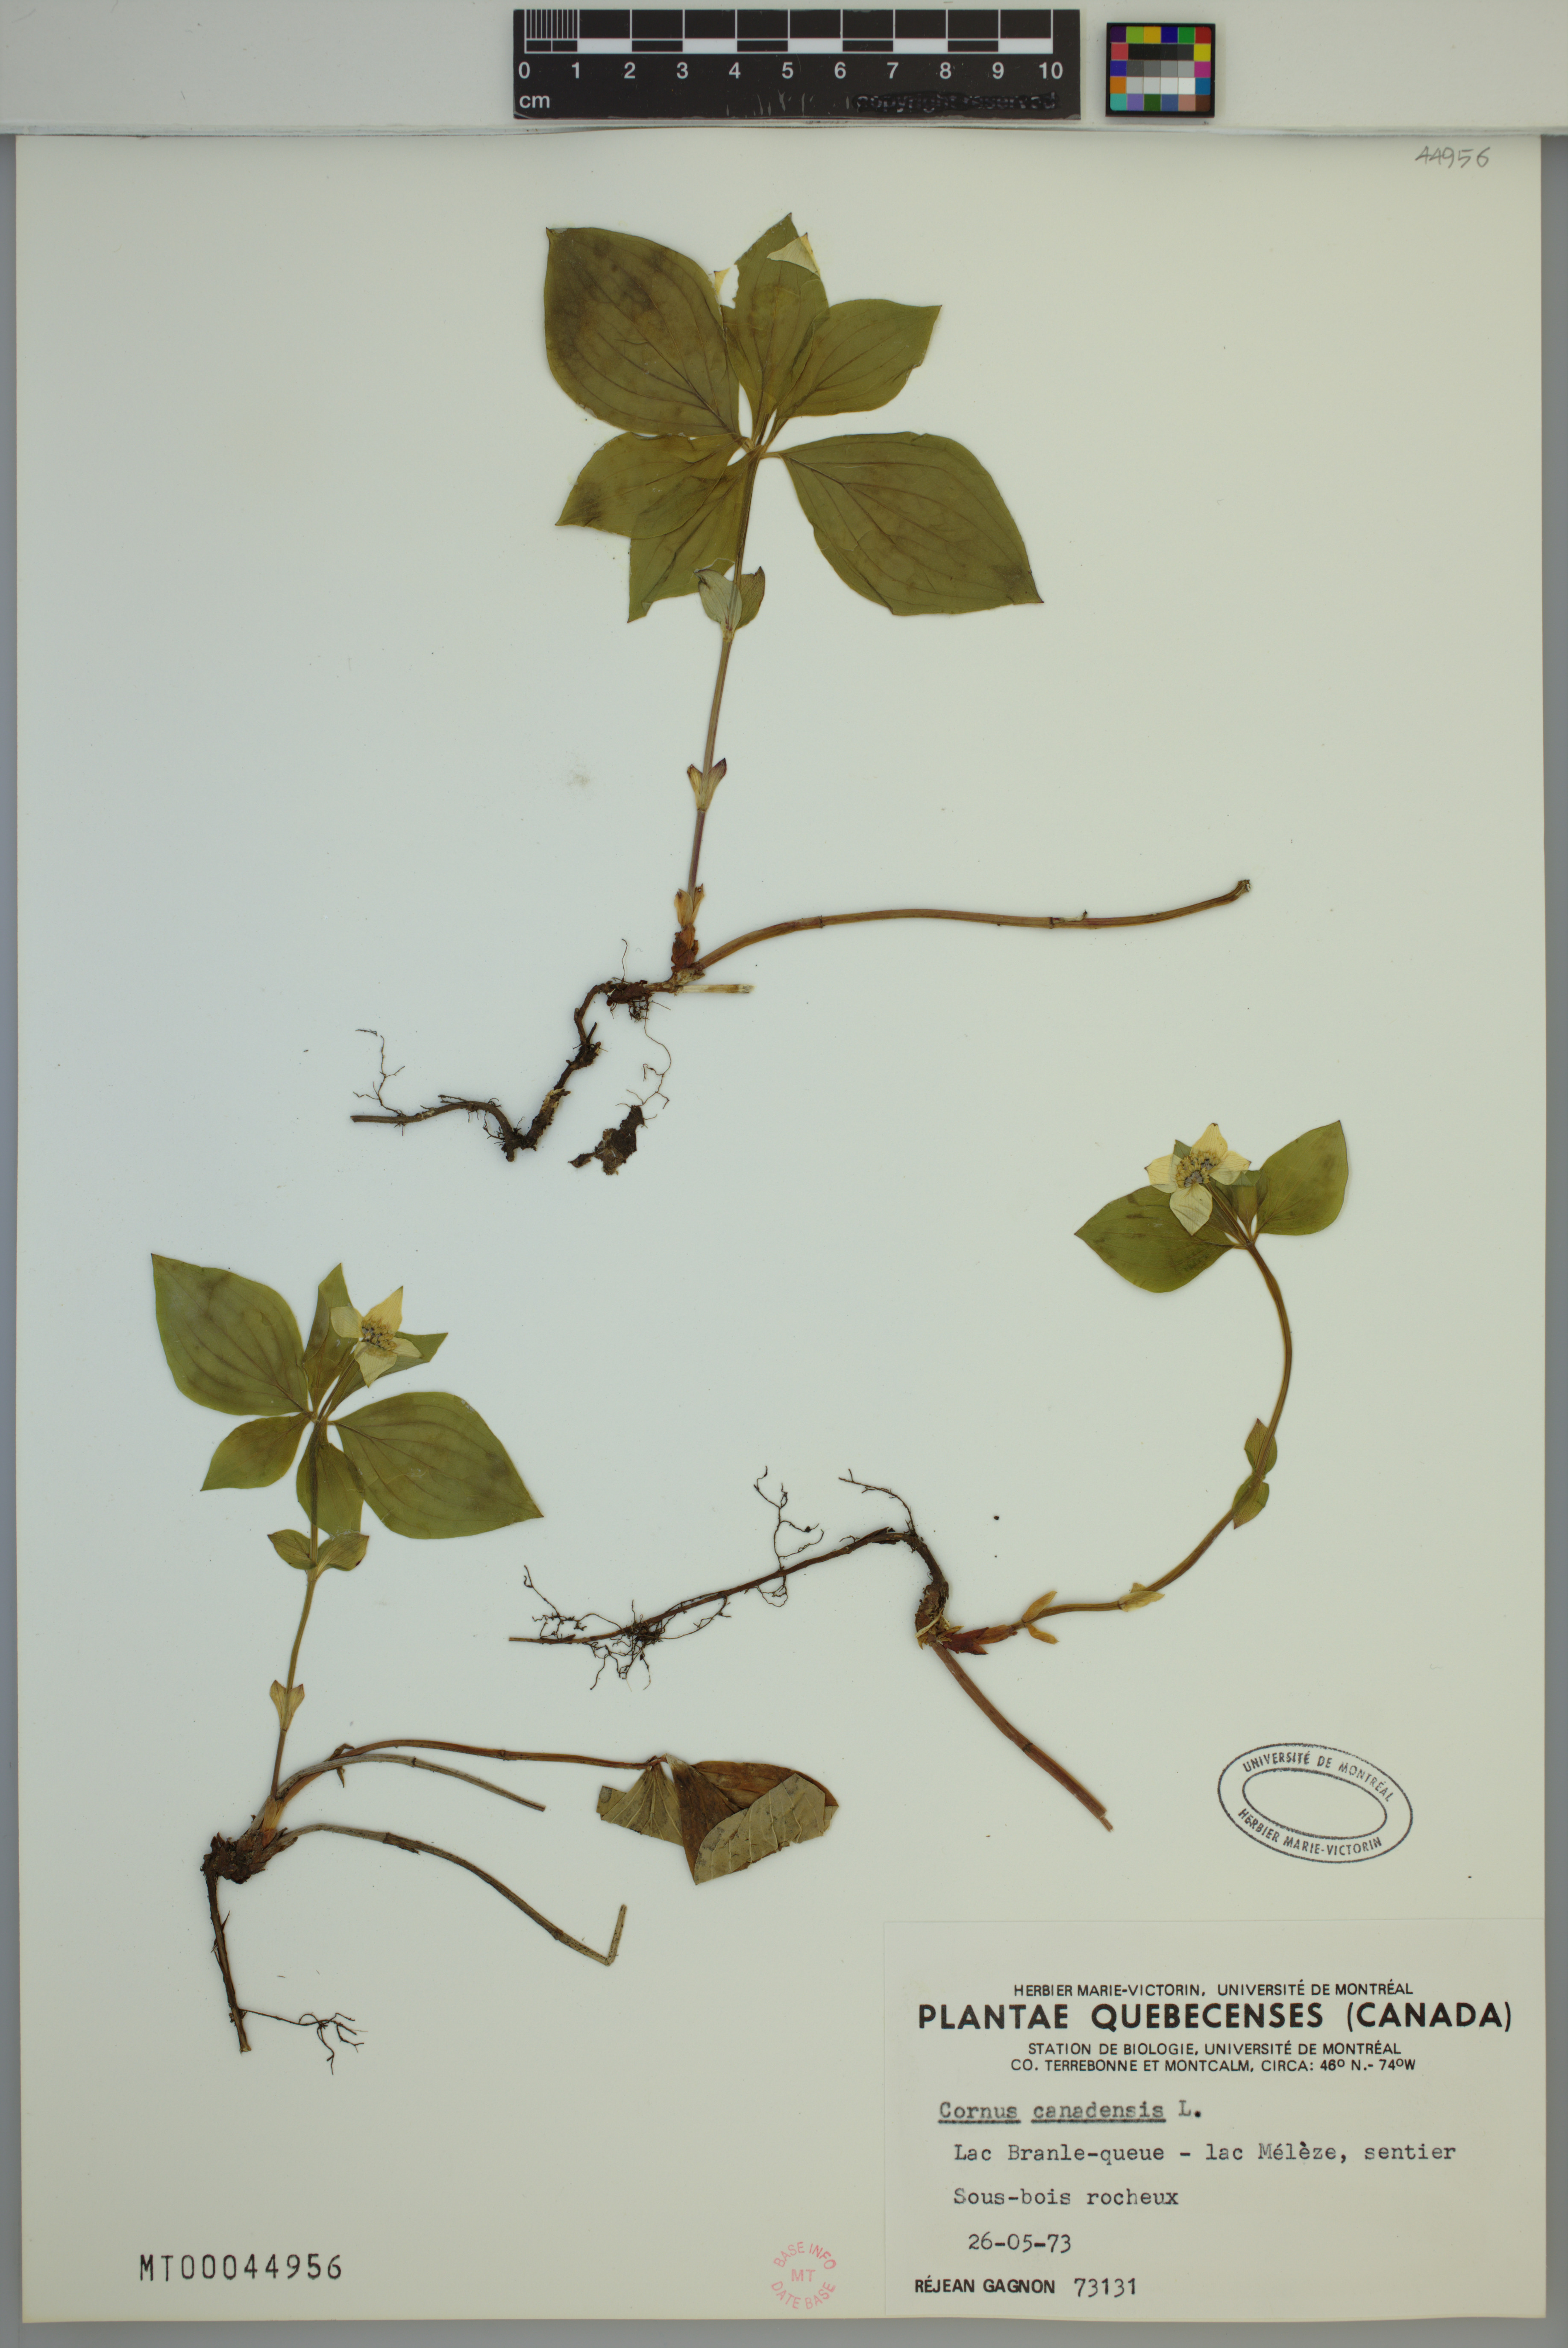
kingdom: Plantae
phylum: Tracheophyta
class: Magnoliopsida
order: Cornales
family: Cornaceae
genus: Cornus
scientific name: Cornus canadensis
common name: Creeping dogwood
